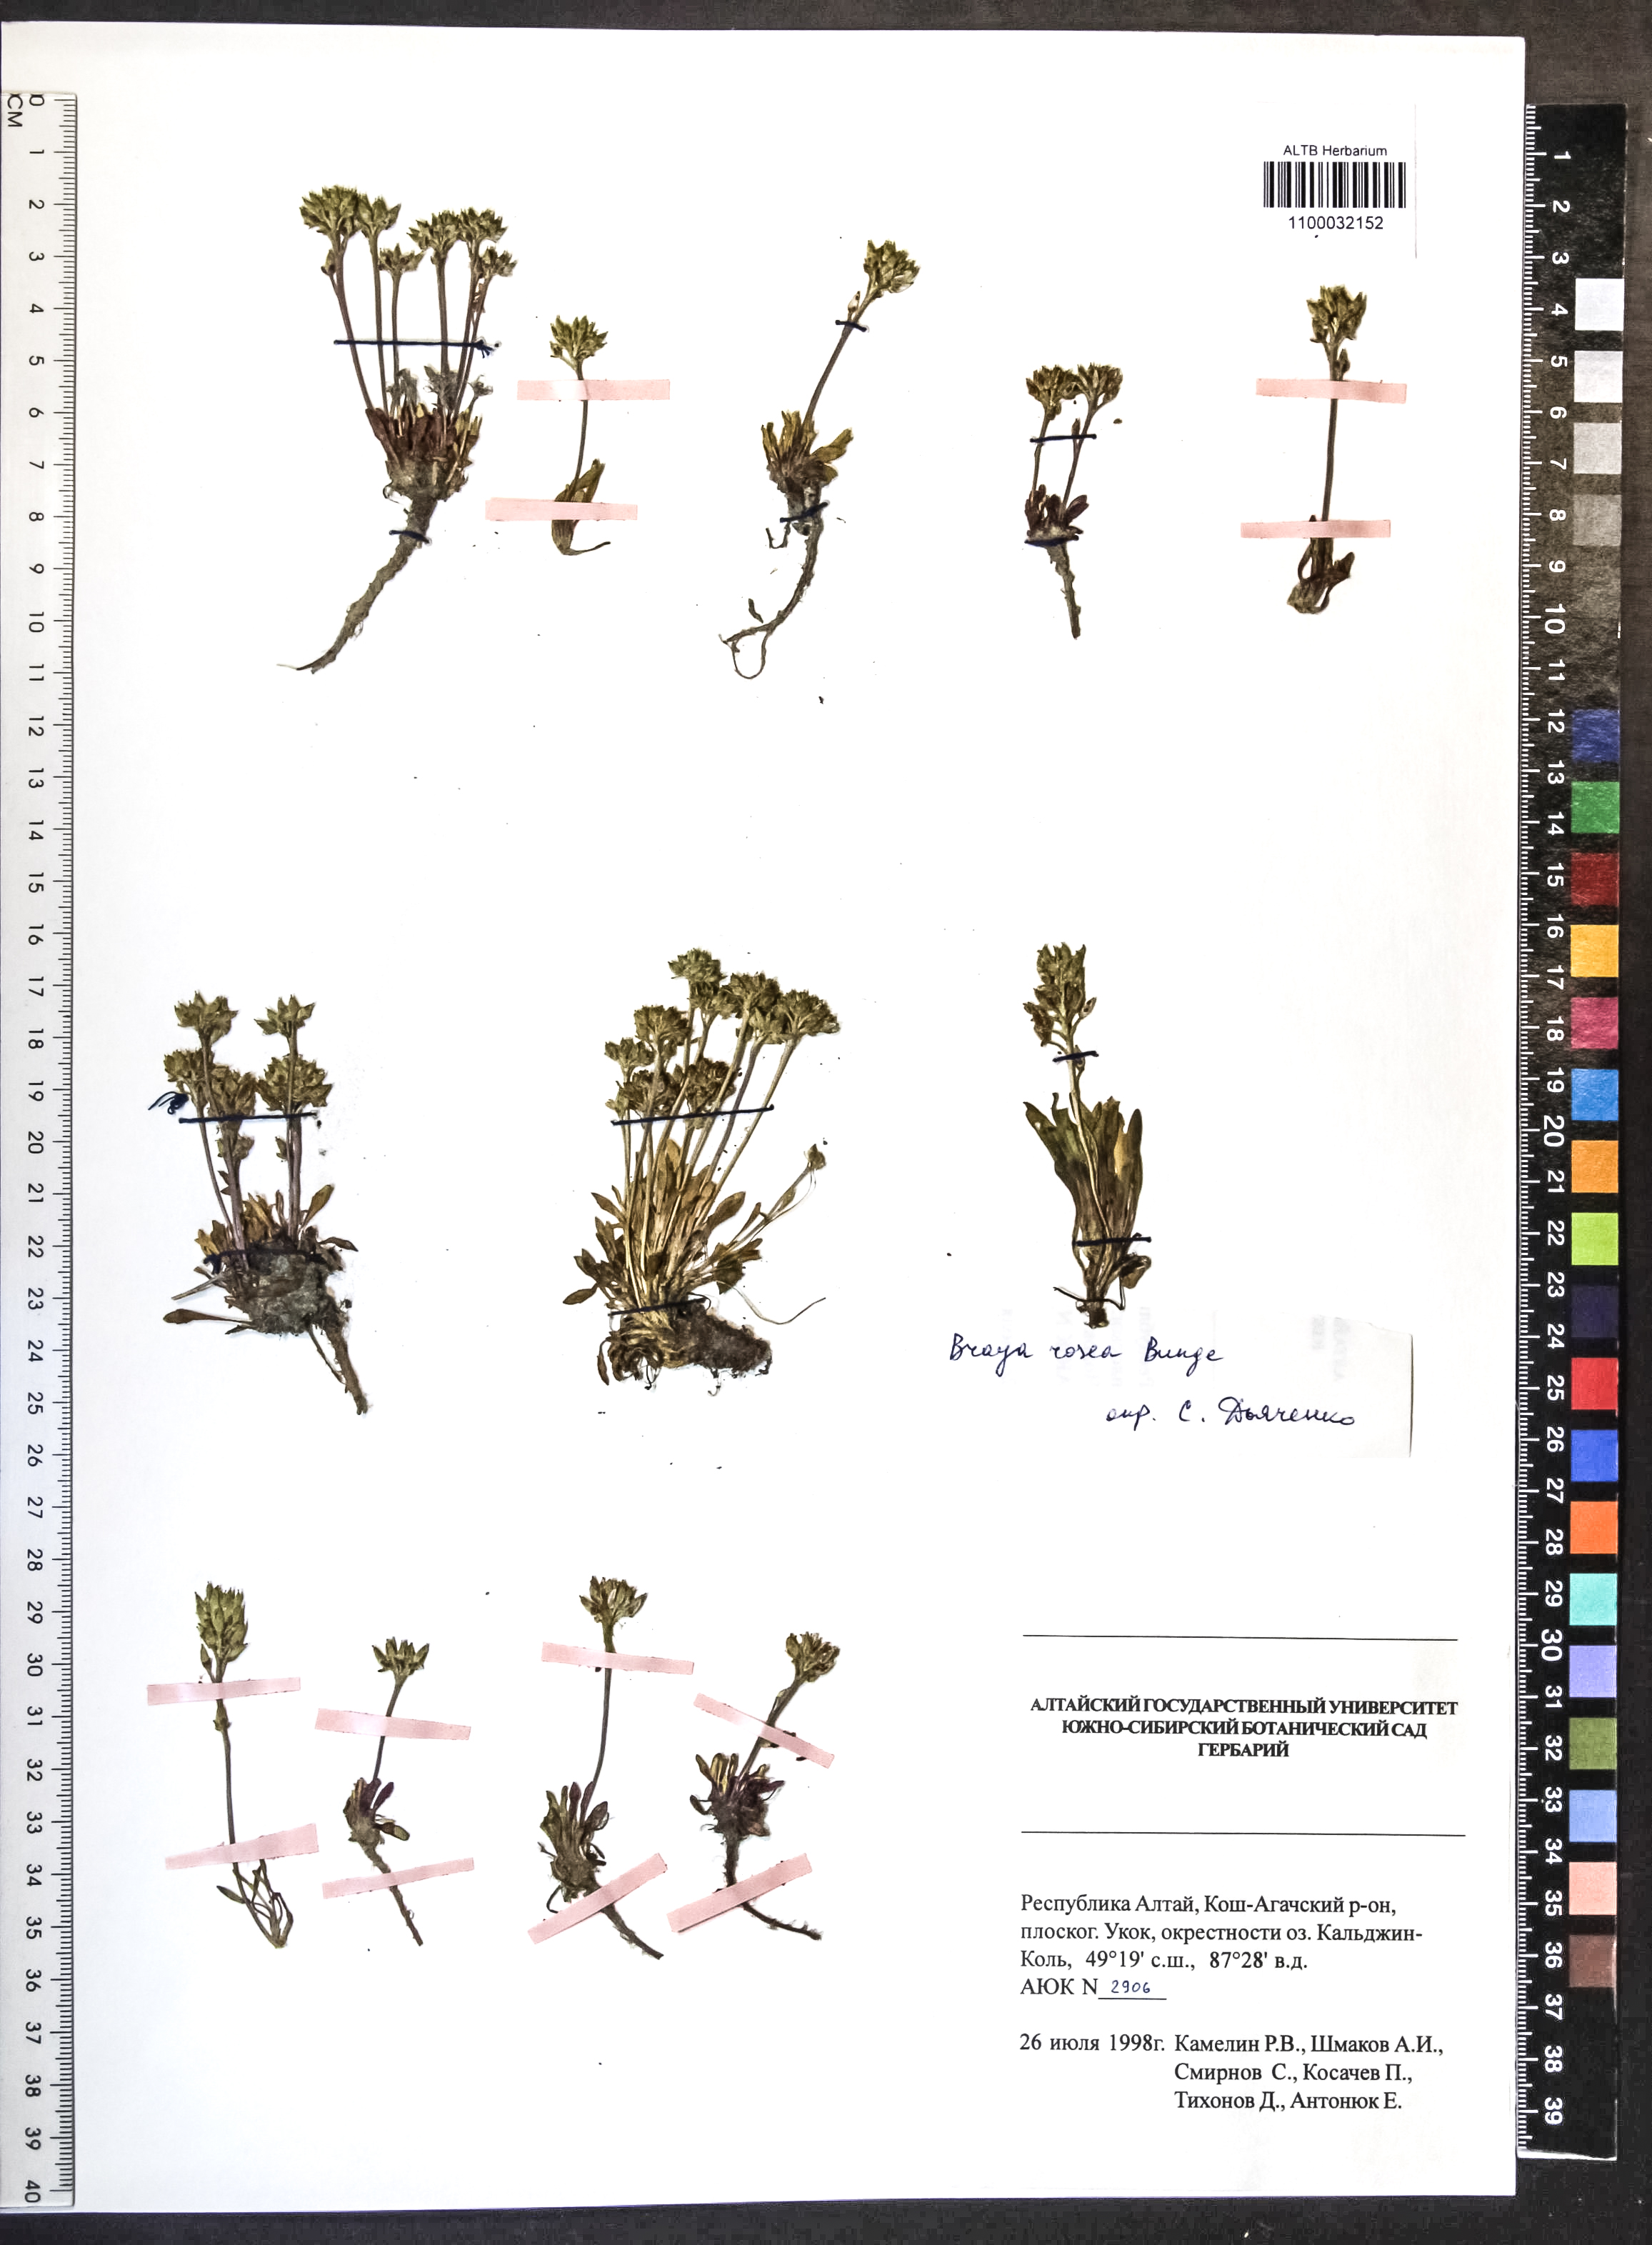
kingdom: Plantae
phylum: Tracheophyta
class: Magnoliopsida
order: Brassicales
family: Brassicaceae
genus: Braya
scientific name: Braya rosea
